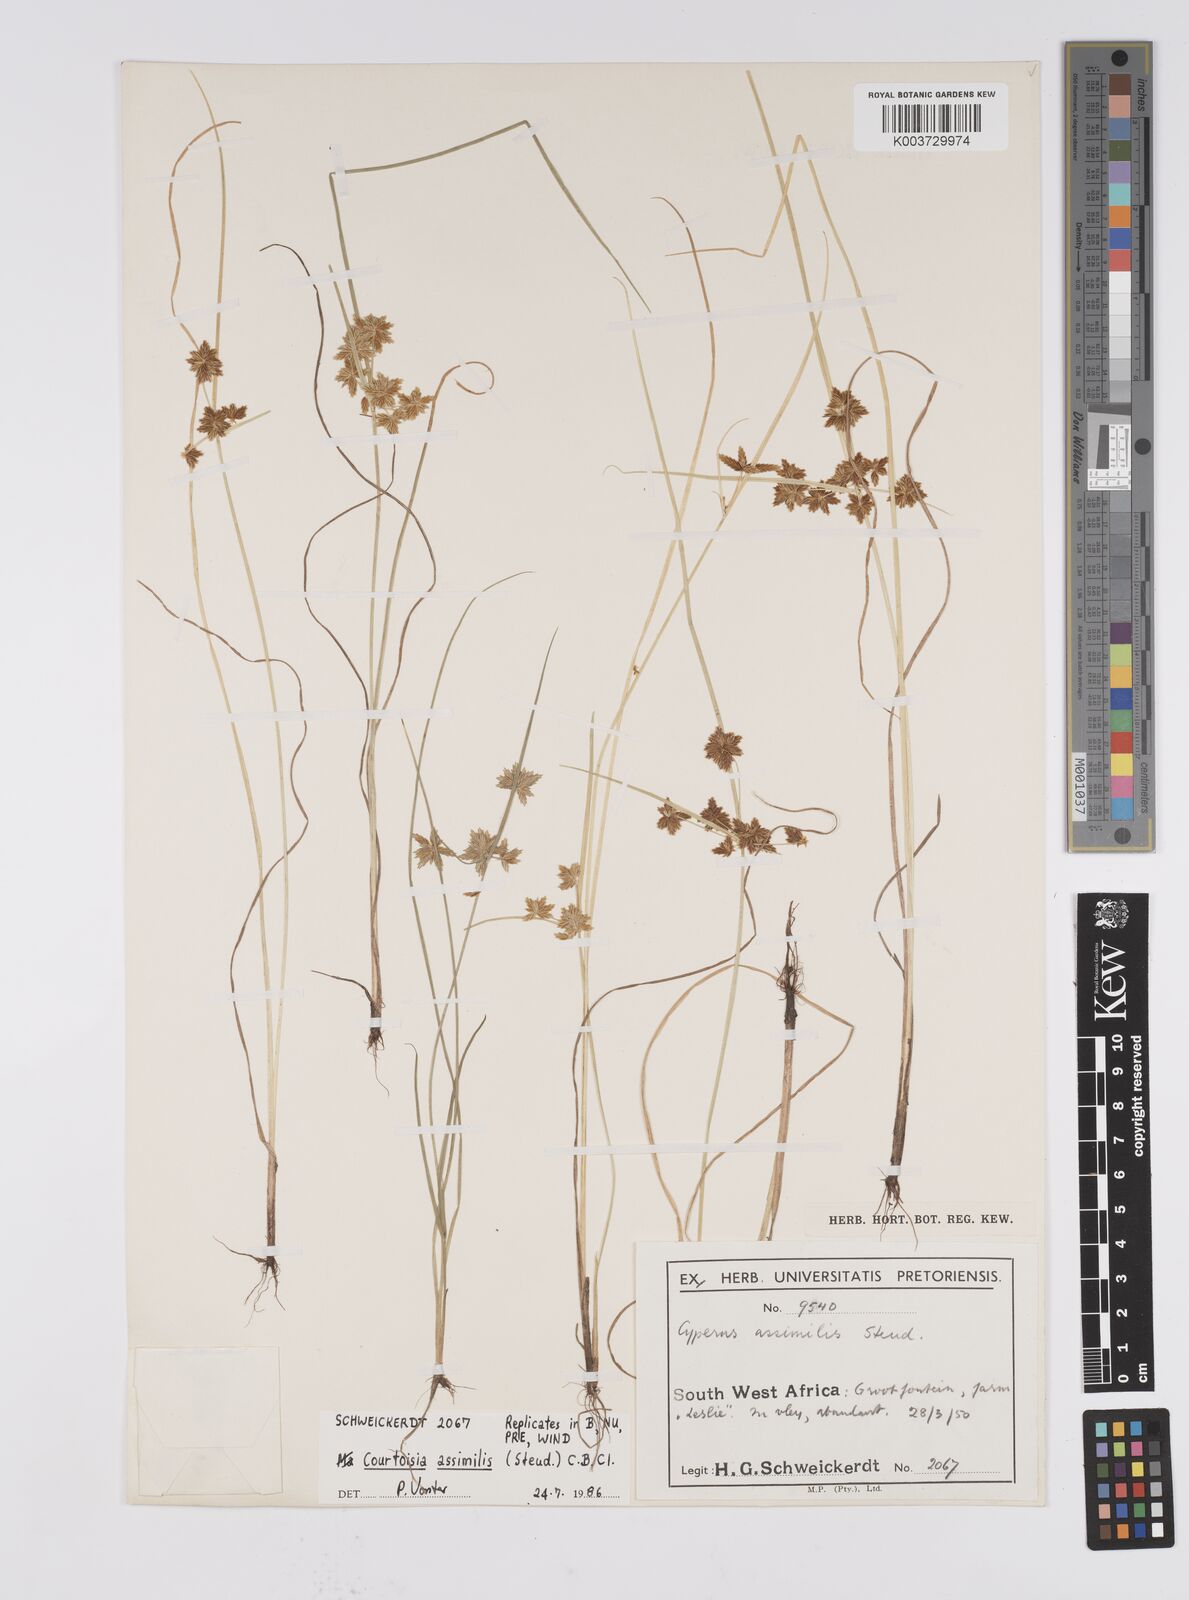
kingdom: Plantae
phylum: Tracheophyta
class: Liliopsida
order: Poales
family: Cyperaceae
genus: Cyperus
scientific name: Cyperus assimilis
